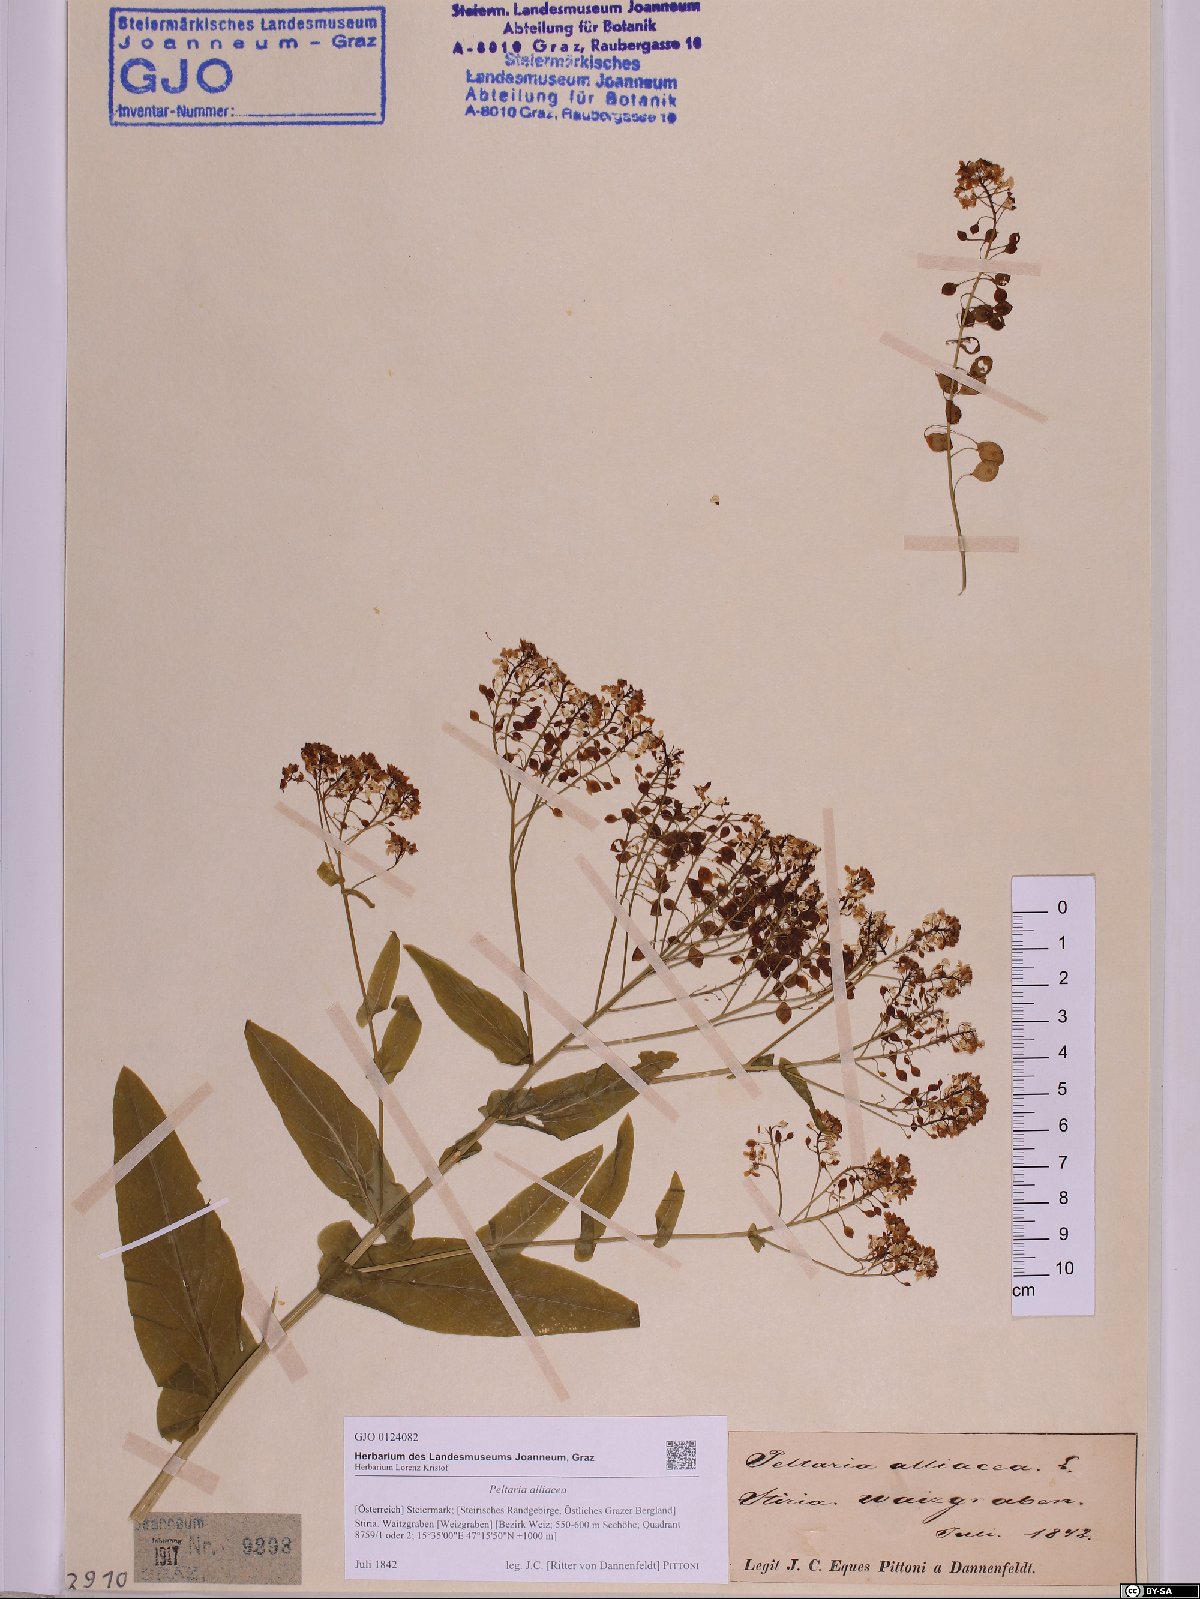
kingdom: Plantae
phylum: Tracheophyta
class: Magnoliopsida
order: Brassicales
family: Brassicaceae
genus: Peltaria
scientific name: Peltaria alliacea
